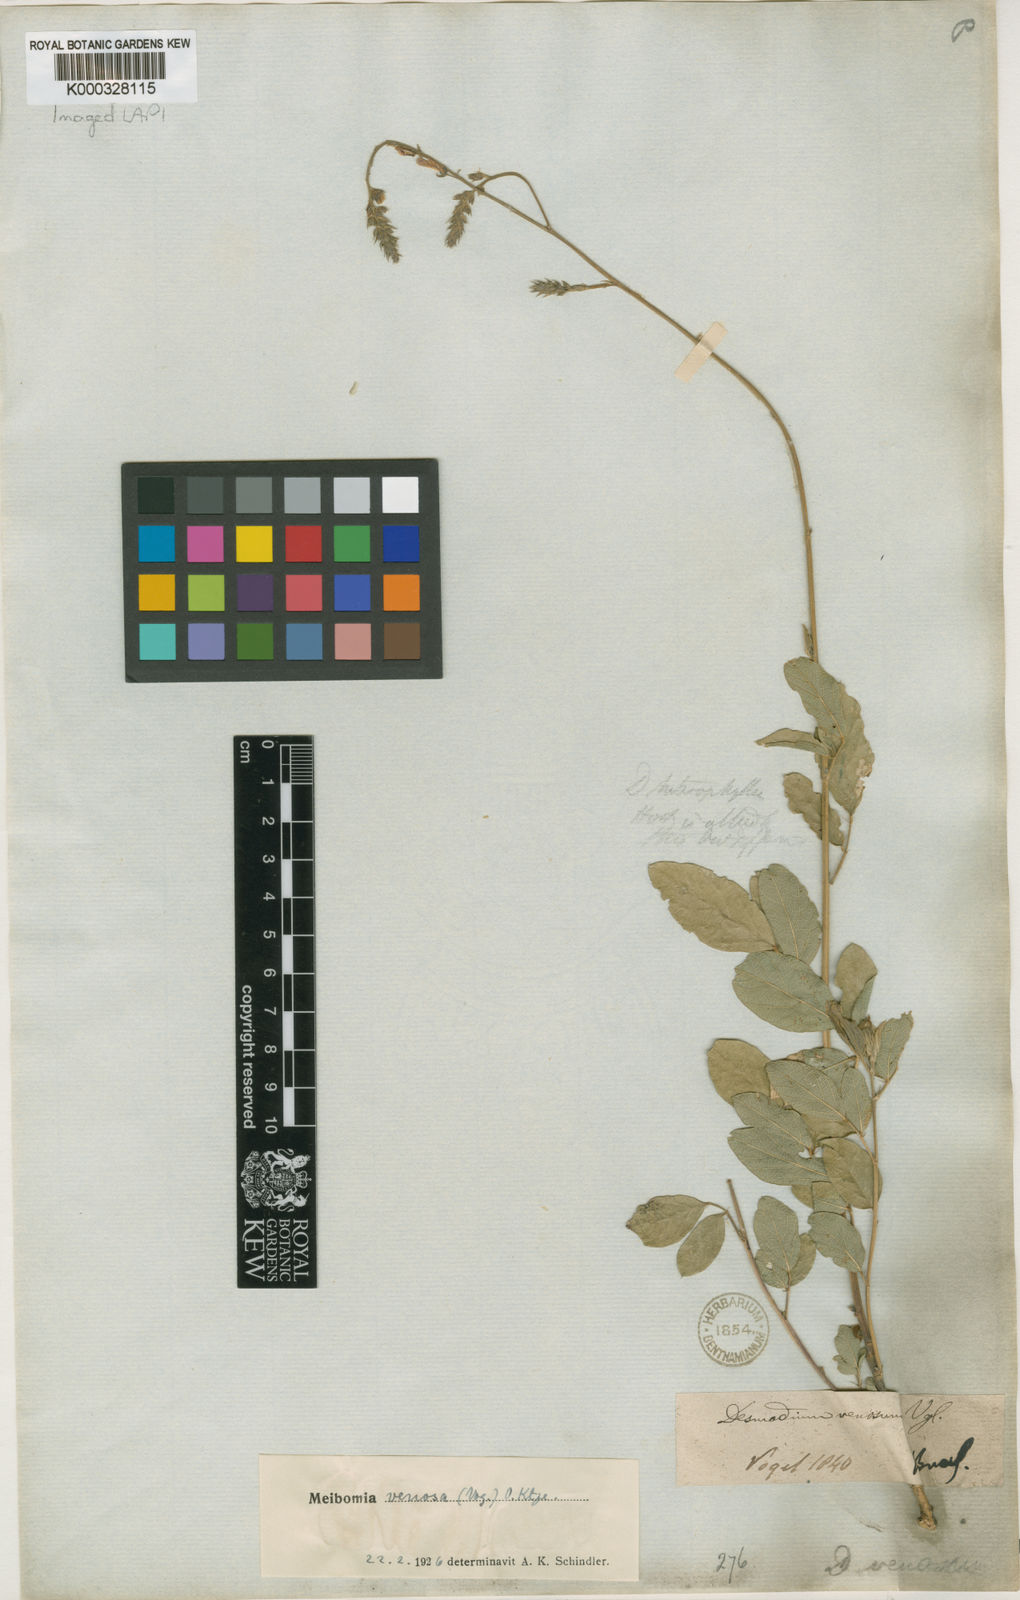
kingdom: Plantae
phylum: Tracheophyta
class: Magnoliopsida
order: Fabales
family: Fabaceae
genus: Desmodium
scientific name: Desmodium venosum
